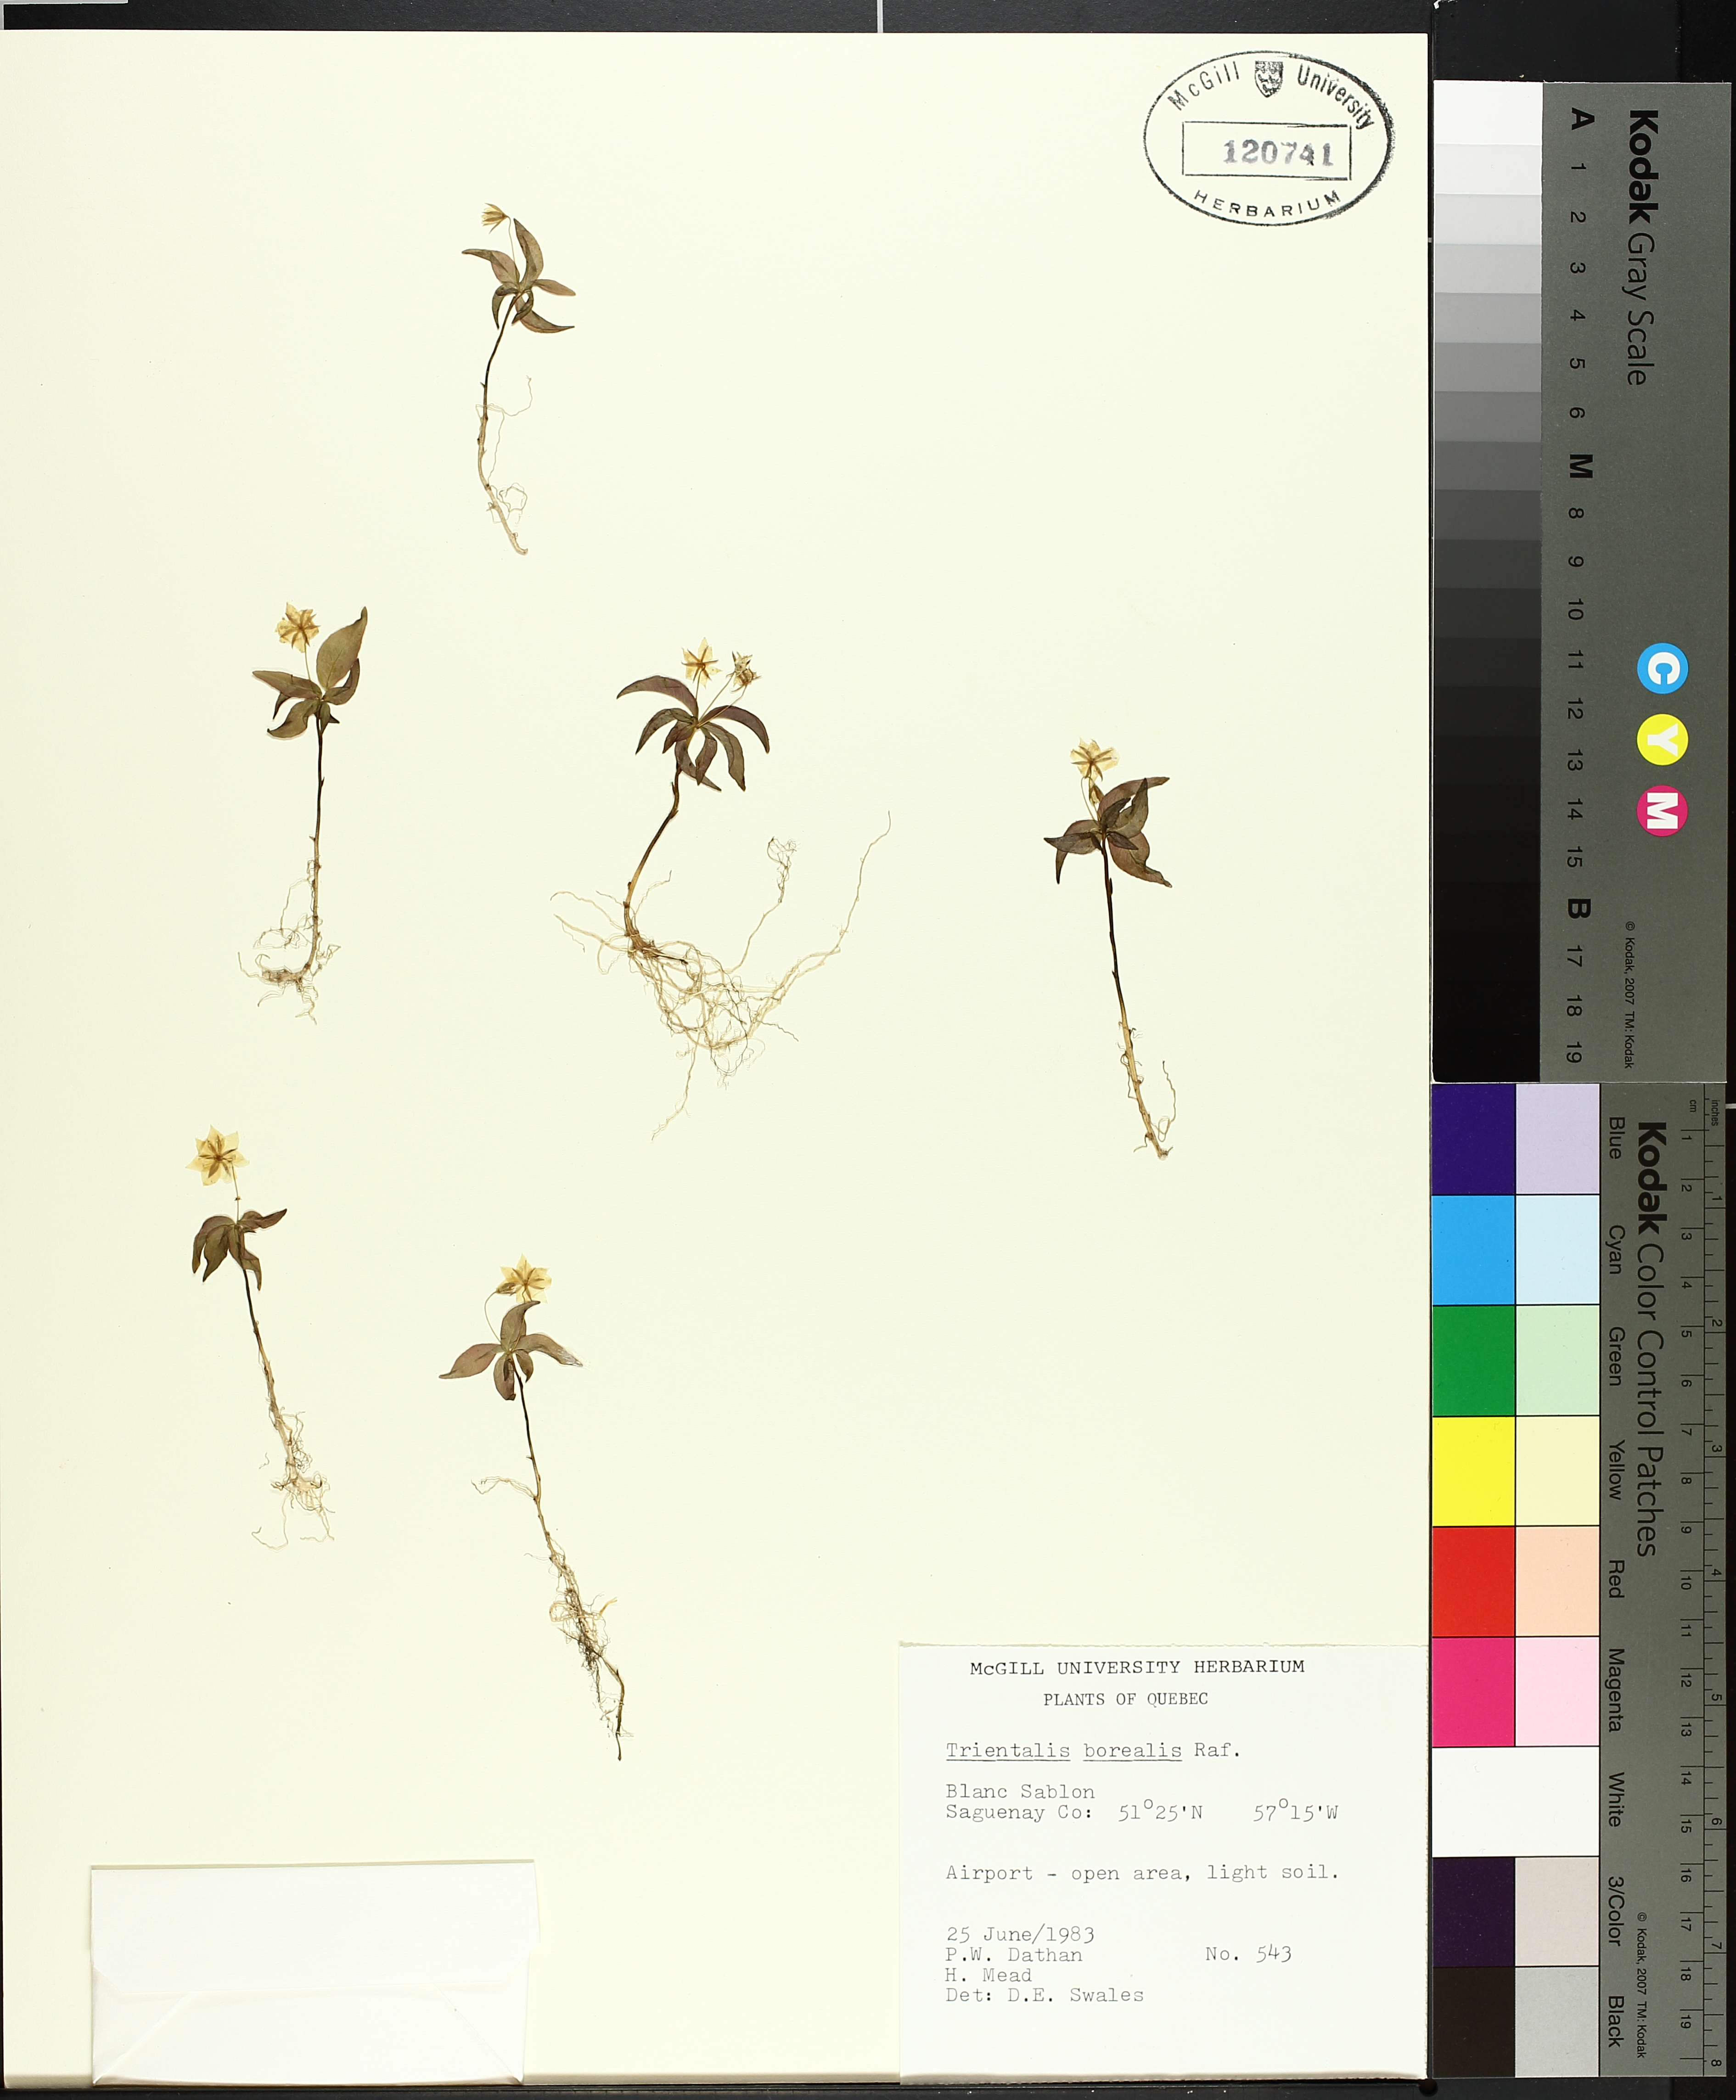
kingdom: Plantae
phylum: Tracheophyta
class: Liliopsida
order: Asparagales
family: Asparagaceae
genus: Maianthemum
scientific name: Maianthemum trifolium
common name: Swamp false solomon's seal
